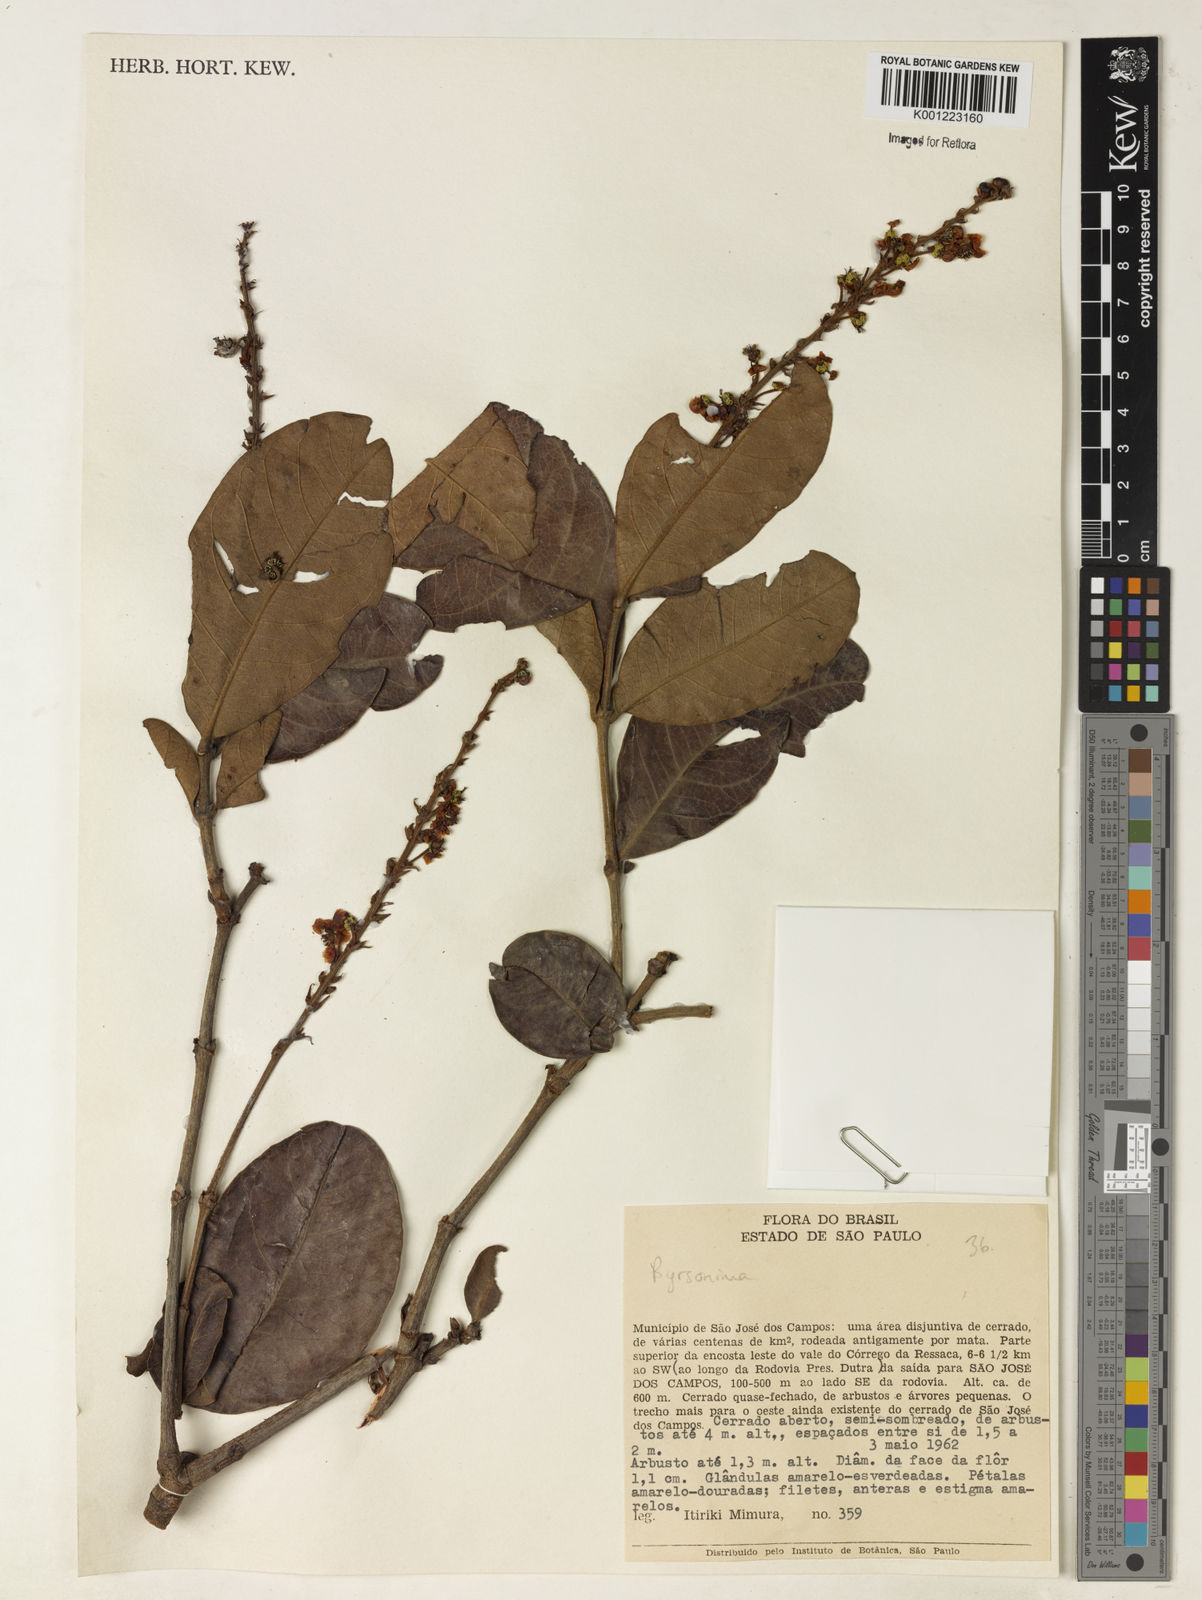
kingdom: Plantae
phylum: Tracheophyta
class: Magnoliopsida
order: Malpighiales
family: Malpighiaceae
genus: Byrsonima
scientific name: Byrsonima
